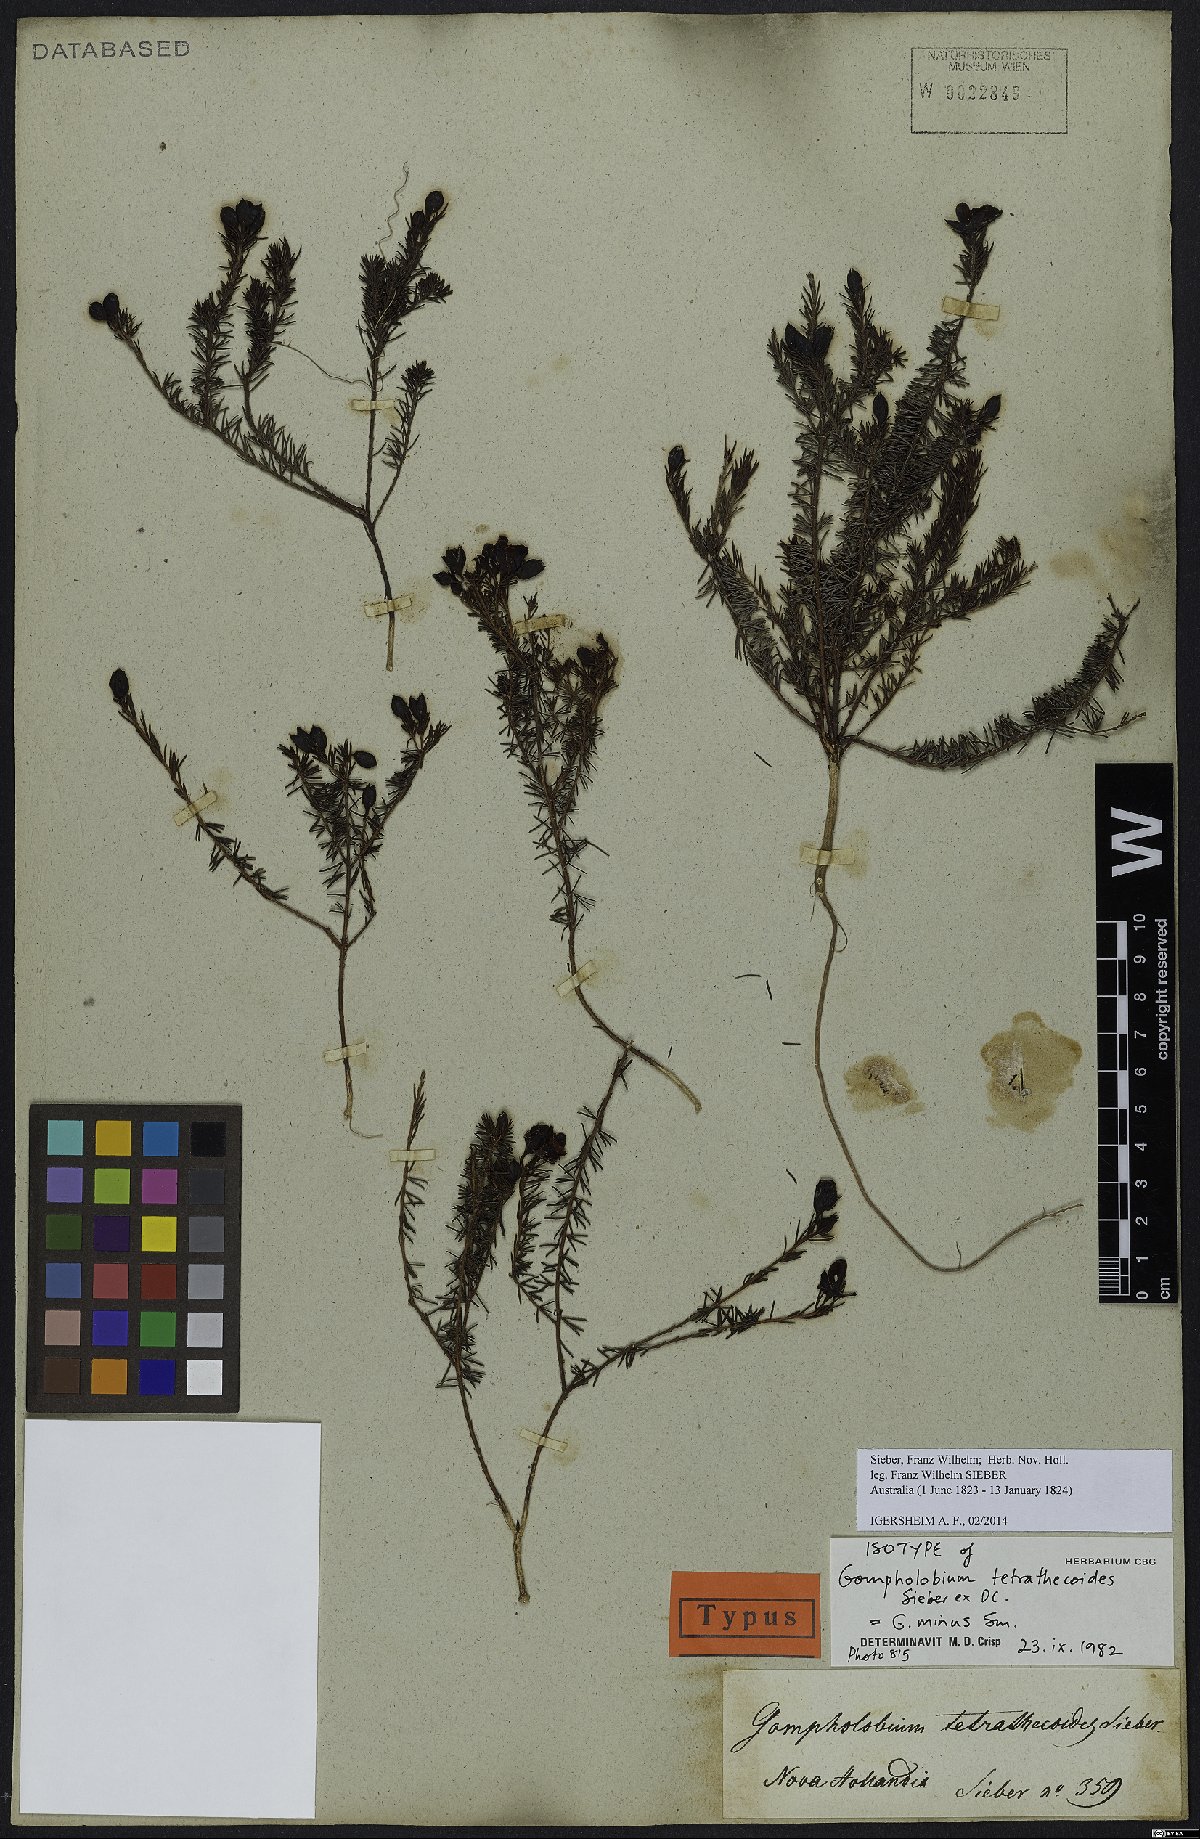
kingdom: Plantae
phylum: Tracheophyta
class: Magnoliopsida
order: Fabales
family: Fabaceae
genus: Gompholobium
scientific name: Gompholobium minus
